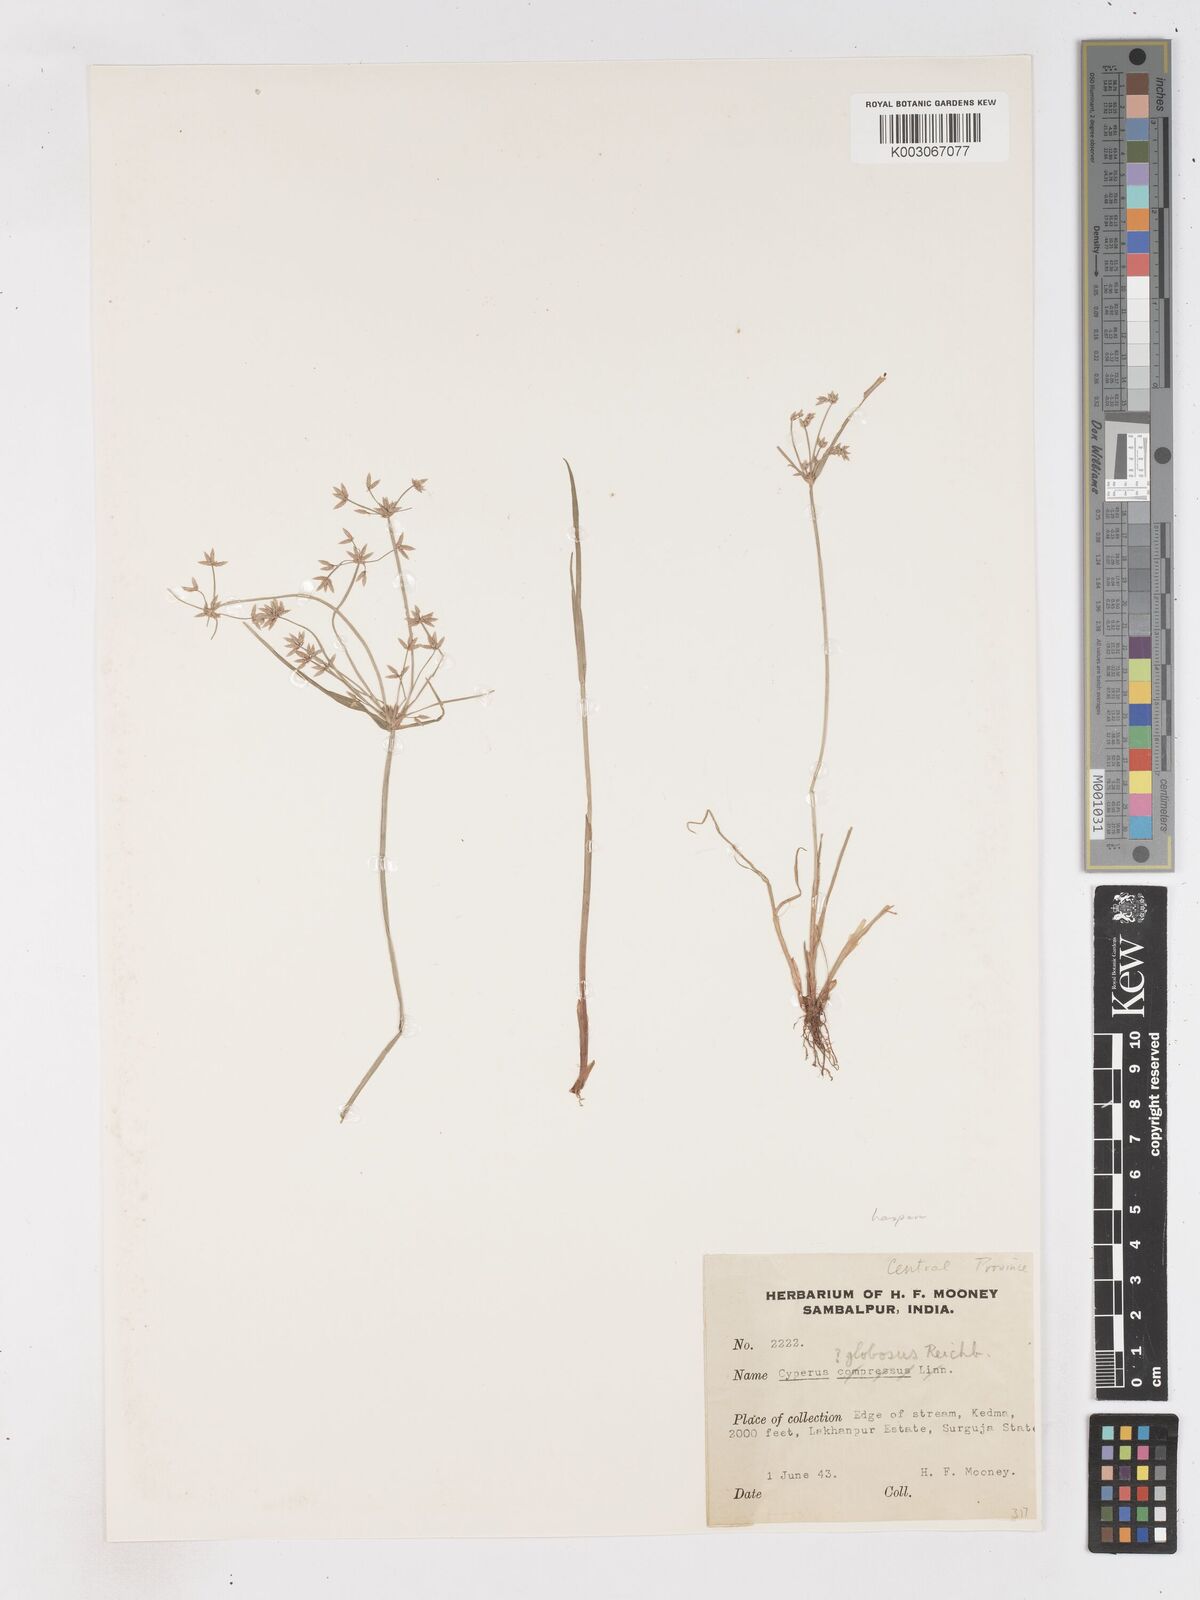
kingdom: Plantae
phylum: Tracheophyta
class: Liliopsida
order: Poales
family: Cyperaceae
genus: Cyperus
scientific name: Cyperus haspan
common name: Haspan flatsedge
